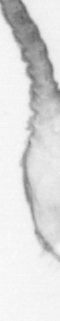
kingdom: Animalia
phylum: Arthropoda
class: Copepoda
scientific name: Copepoda
